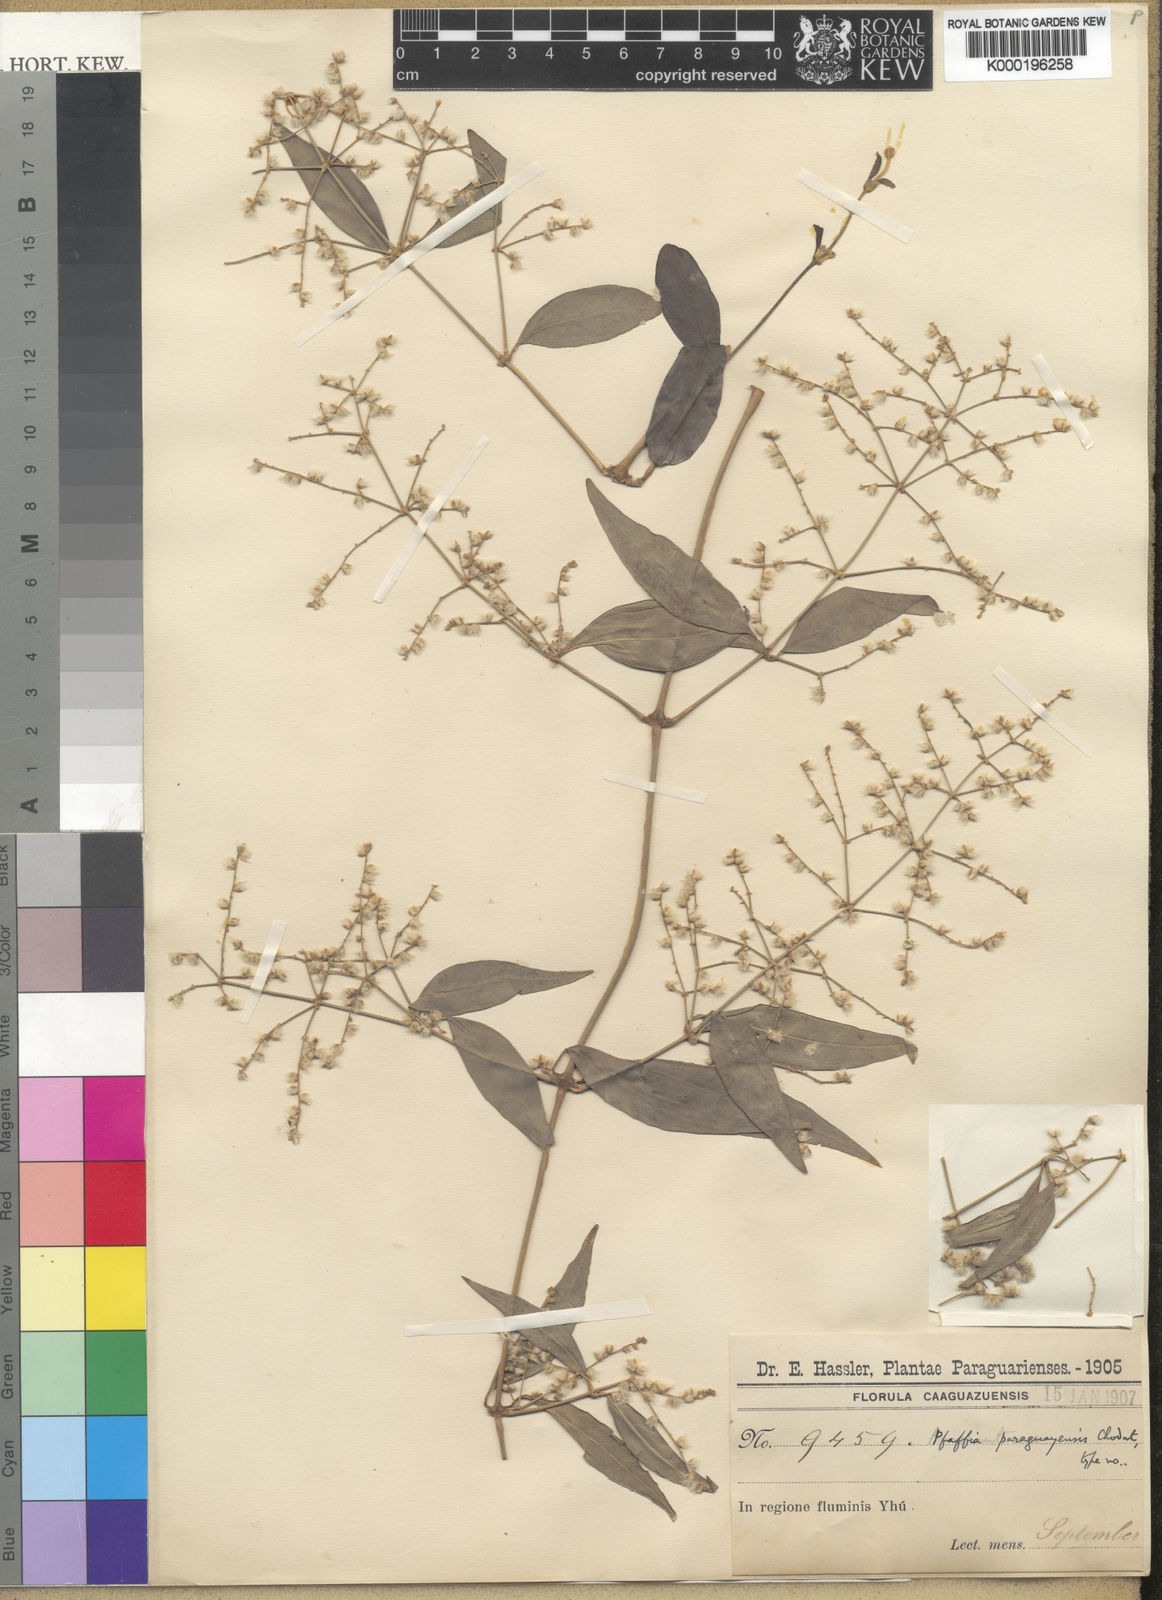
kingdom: Plantae
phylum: Tracheophyta
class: Magnoliopsida
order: Caryophyllales
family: Amaranthaceae
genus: Hebanthe
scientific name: Hebanthe erianthos
